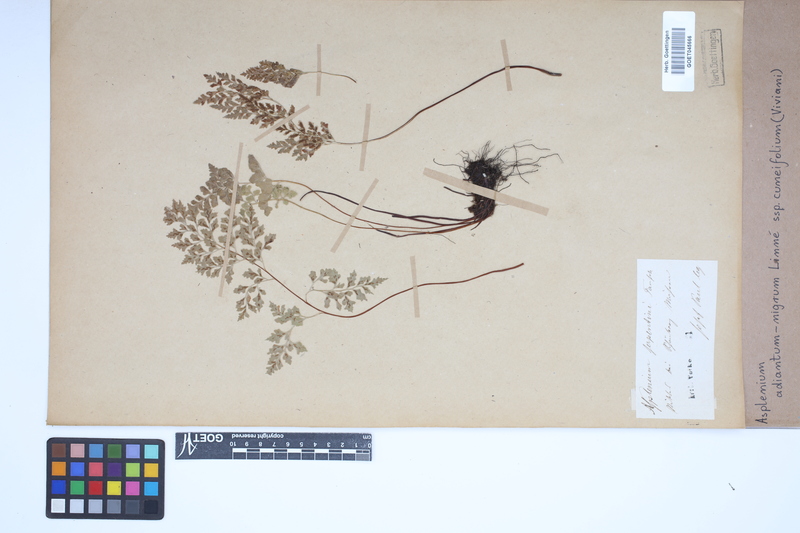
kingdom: Plantae
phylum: Tracheophyta
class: Polypodiopsida
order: Polypodiales
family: Aspleniaceae
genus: Asplenium
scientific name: Asplenium cuneifolium
